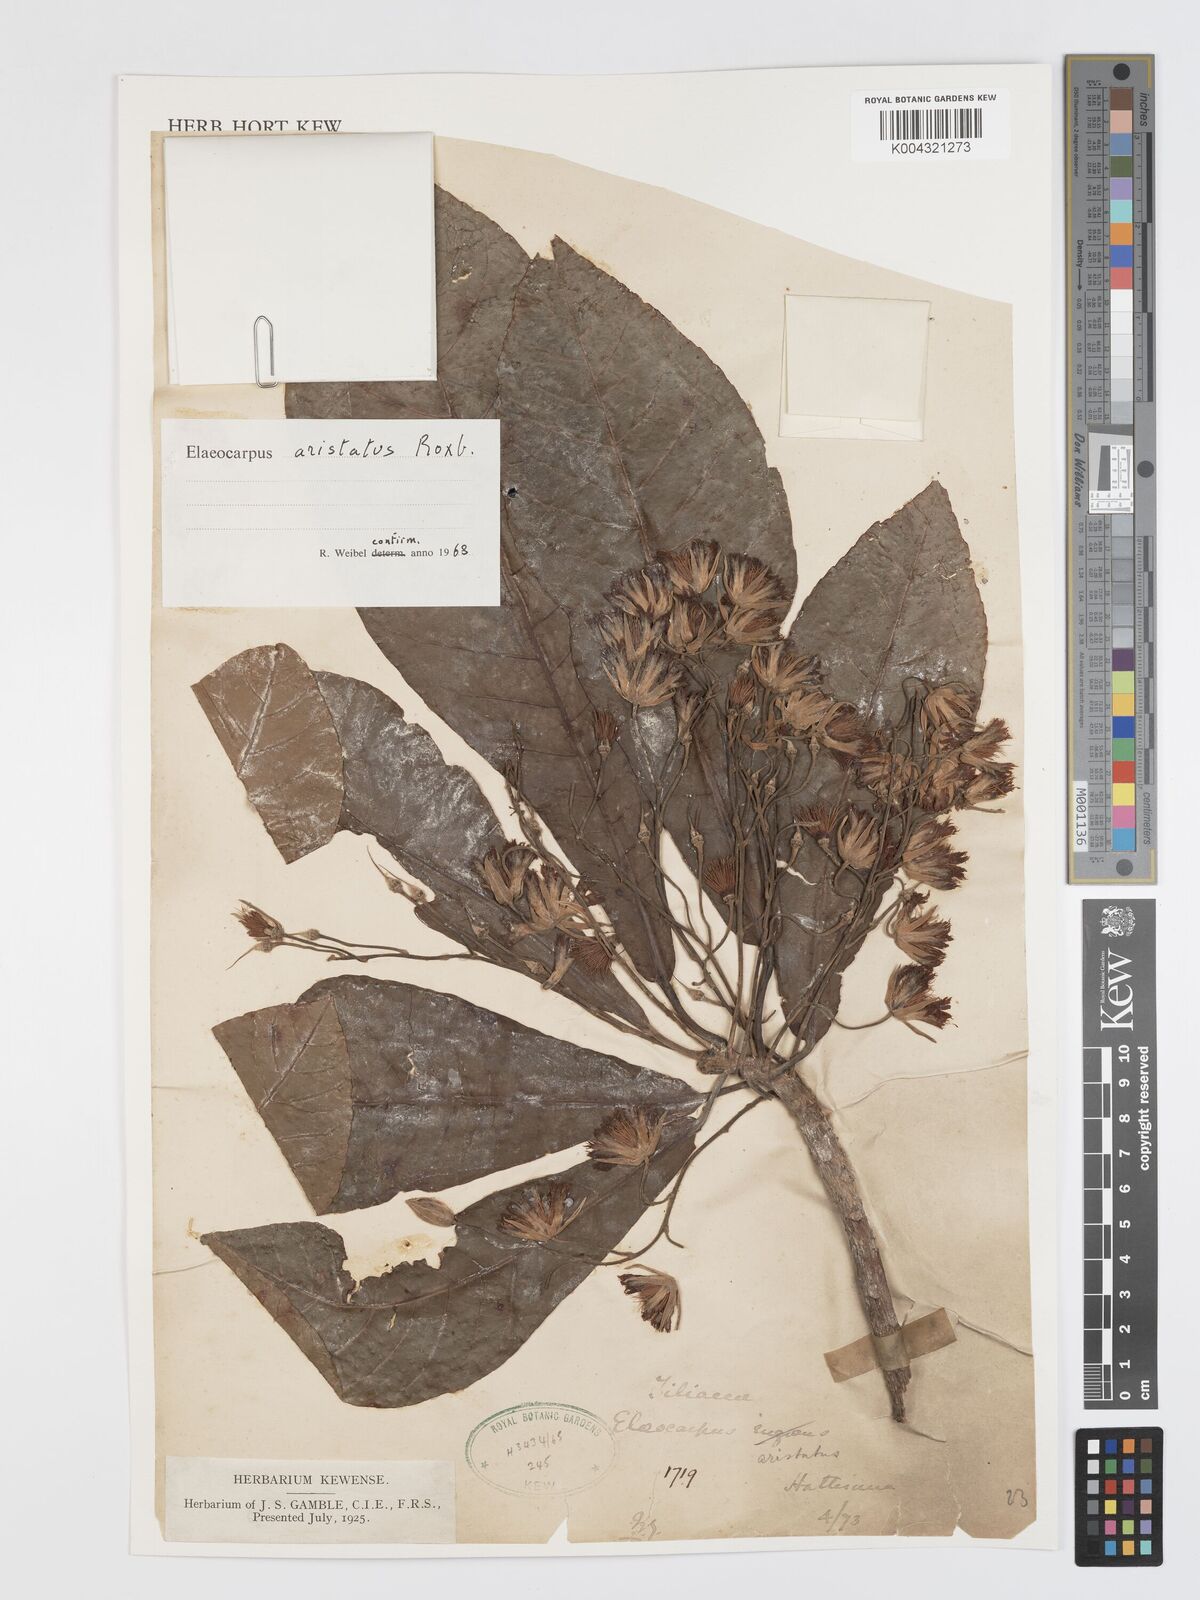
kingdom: Plantae
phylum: Tracheophyta
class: Magnoliopsida
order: Oxalidales
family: Elaeocarpaceae
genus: Elaeocarpus
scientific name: Elaeocarpus aristatus
